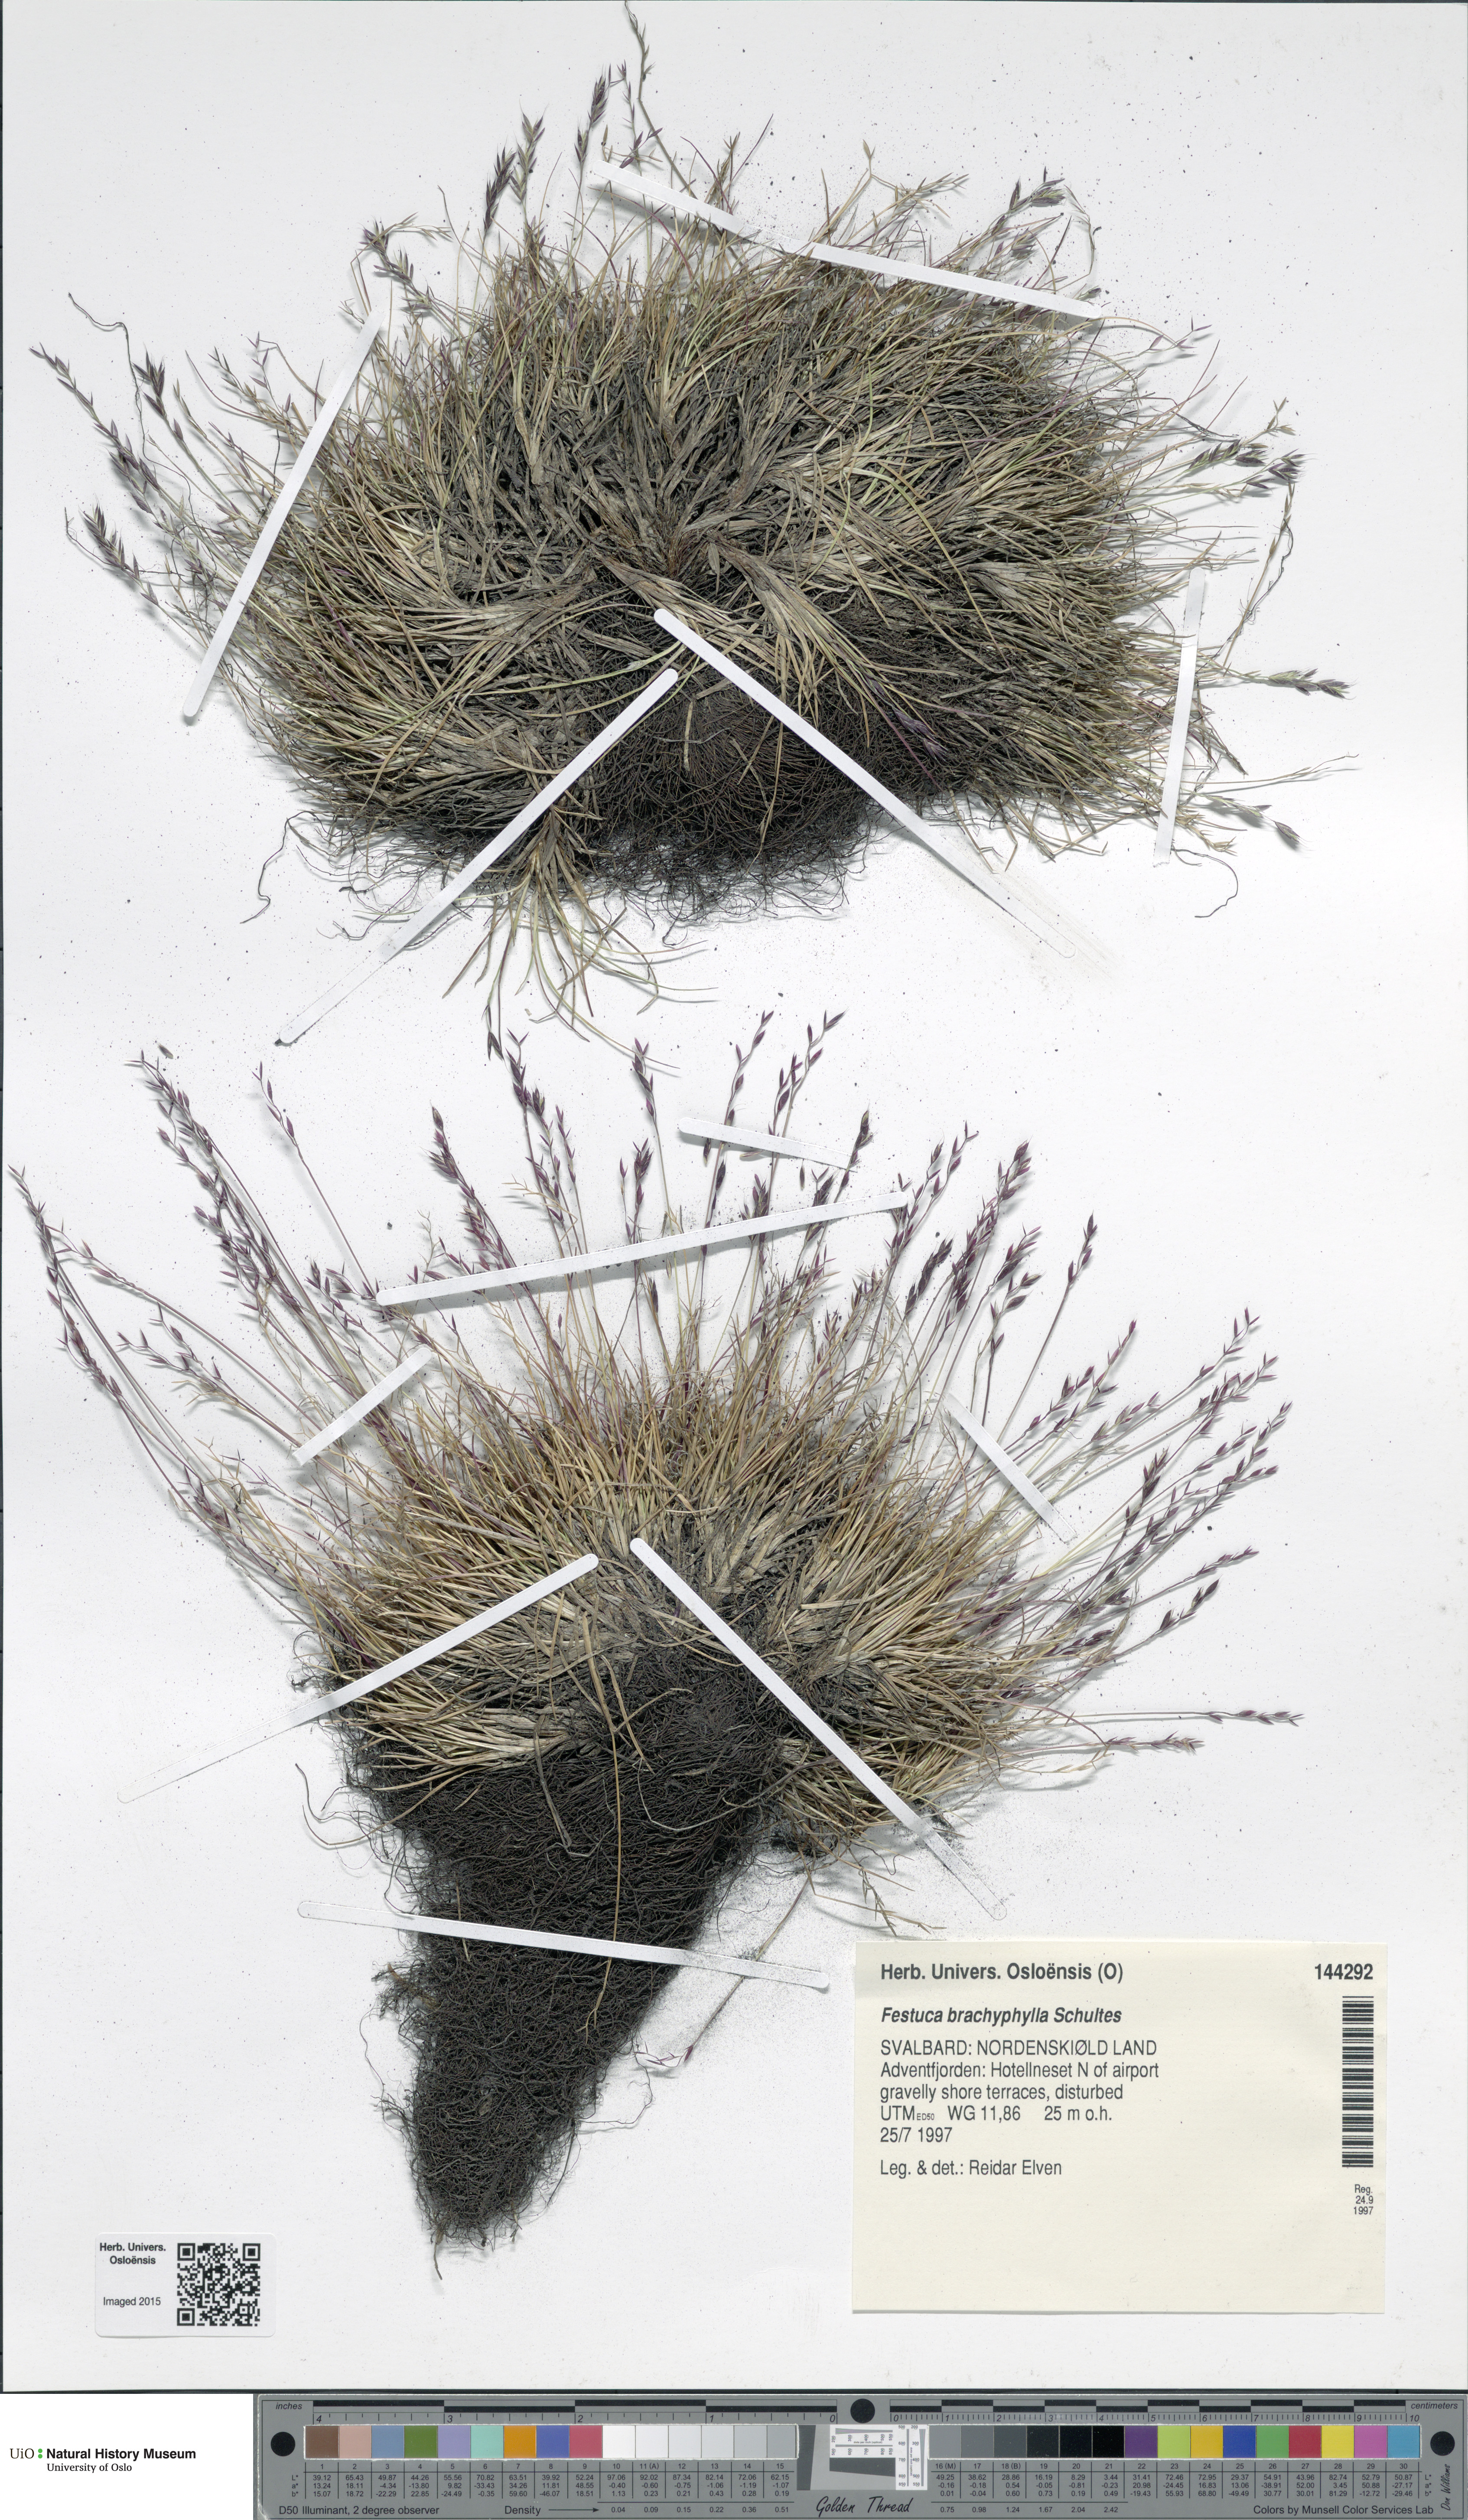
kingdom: Plantae
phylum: Tracheophyta
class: Liliopsida
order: Poales
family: Poaceae
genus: Festuca
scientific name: Festuca brachyphylla
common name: Alpine fescue
